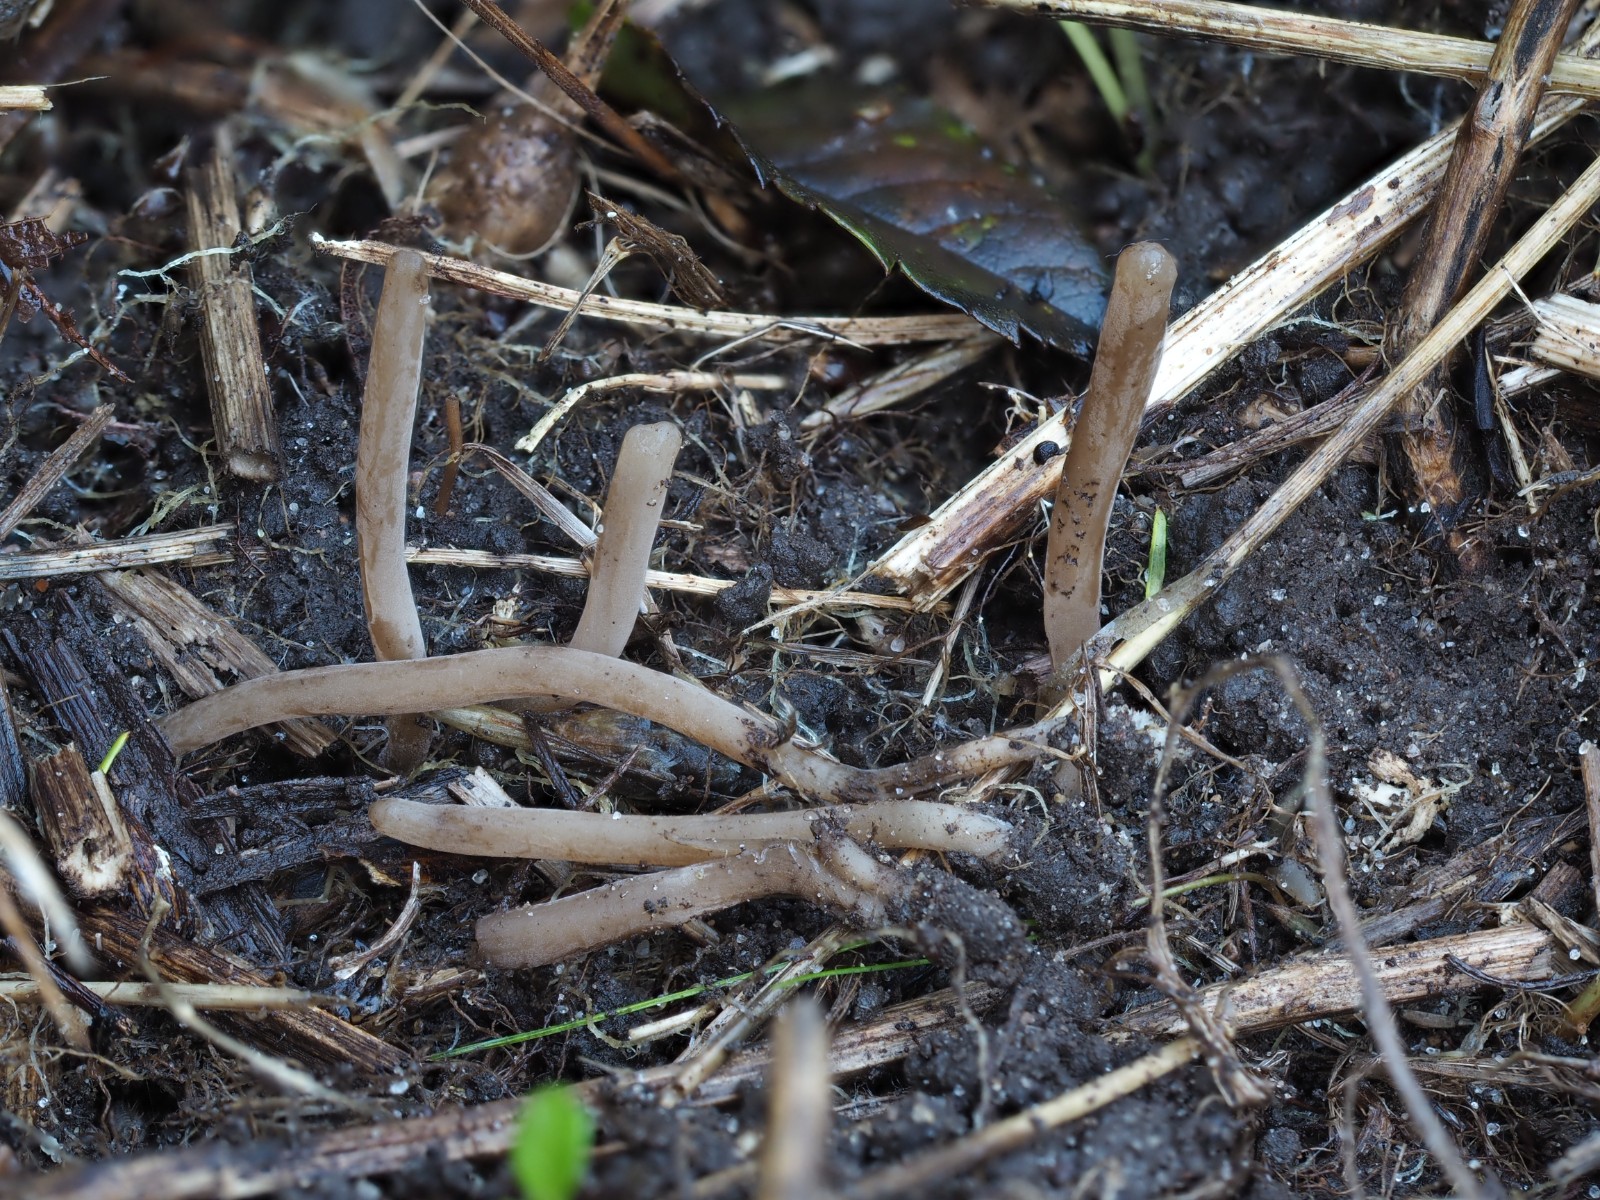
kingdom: Fungi
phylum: Basidiomycota
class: Agaricomycetes
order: Agaricales
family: Clavariaceae
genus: Ramariopsis
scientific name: Ramariopsis asperulospora
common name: sort køllesvamp
